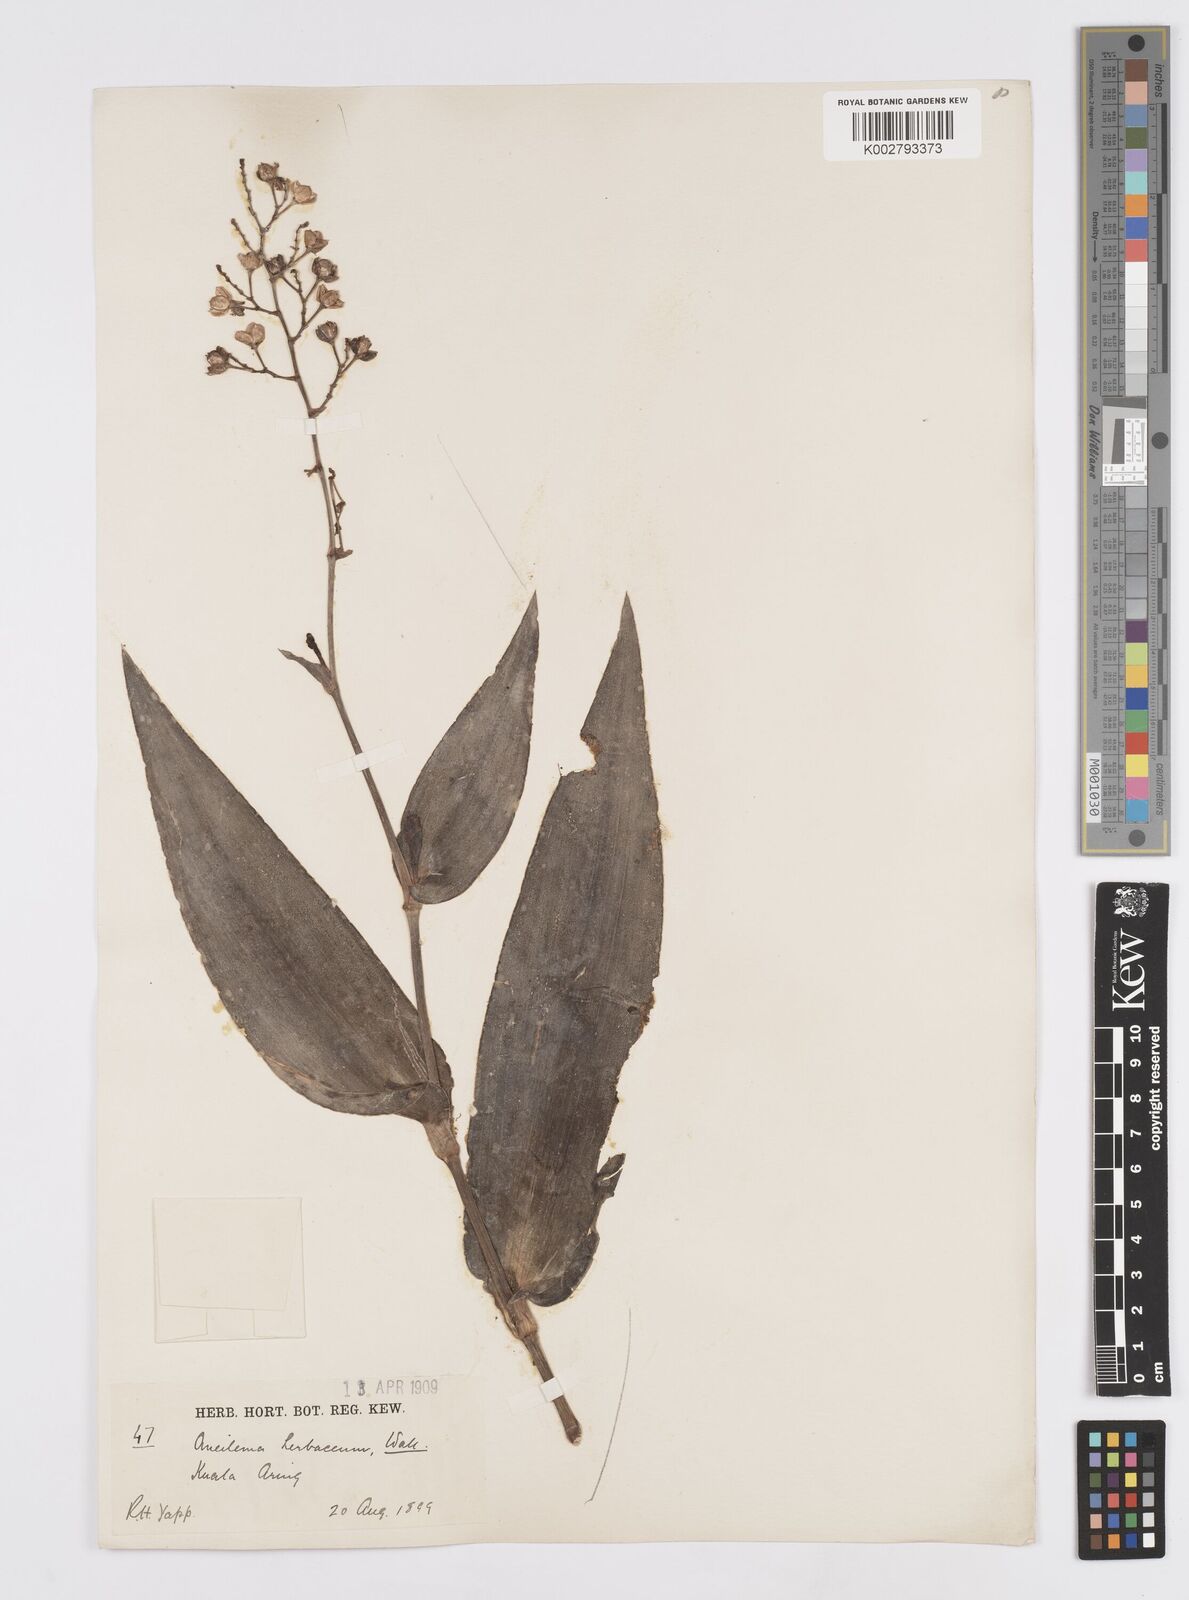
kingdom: Plantae
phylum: Tracheophyta
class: Liliopsida
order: Commelinales
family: Commelinaceae
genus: Murdannia
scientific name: Murdannia japonica
